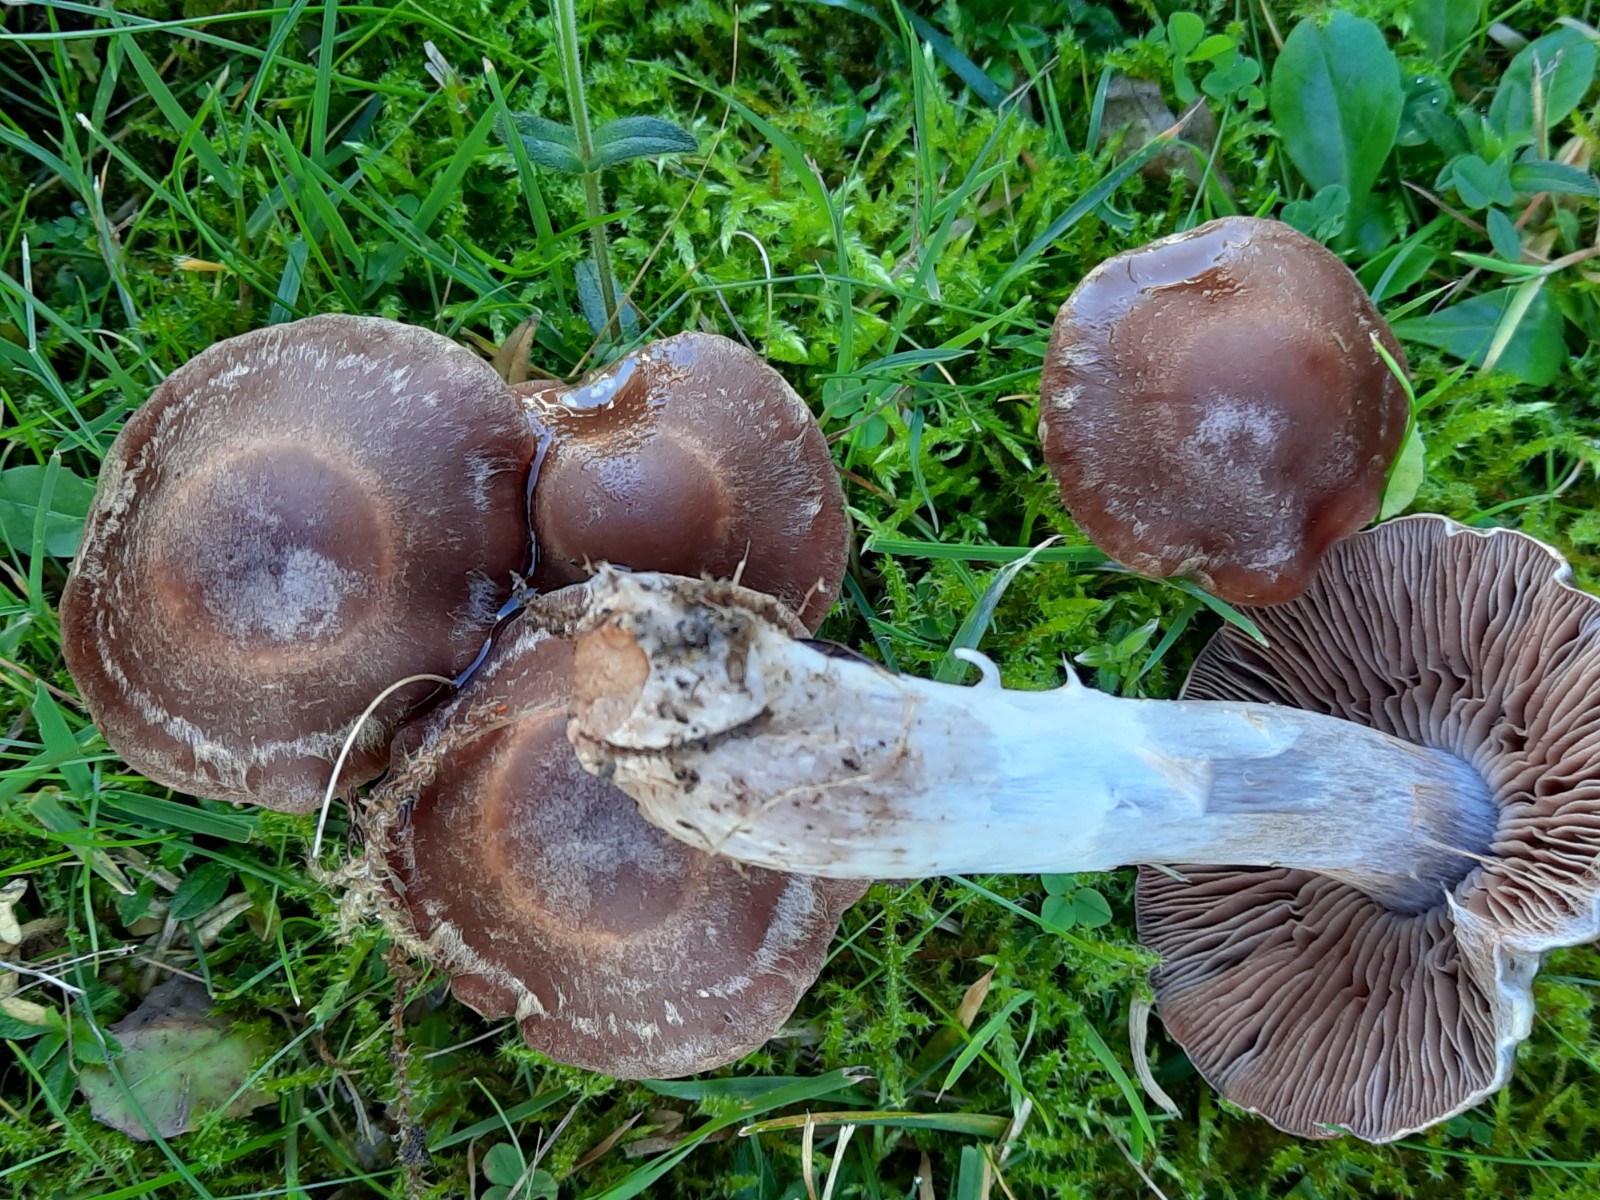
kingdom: Fungi
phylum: Basidiomycota
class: Agaricomycetes
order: Agaricales
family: Cortinariaceae
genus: Cortinarius
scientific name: Cortinarius saturninus
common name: brunviolet slørhat
